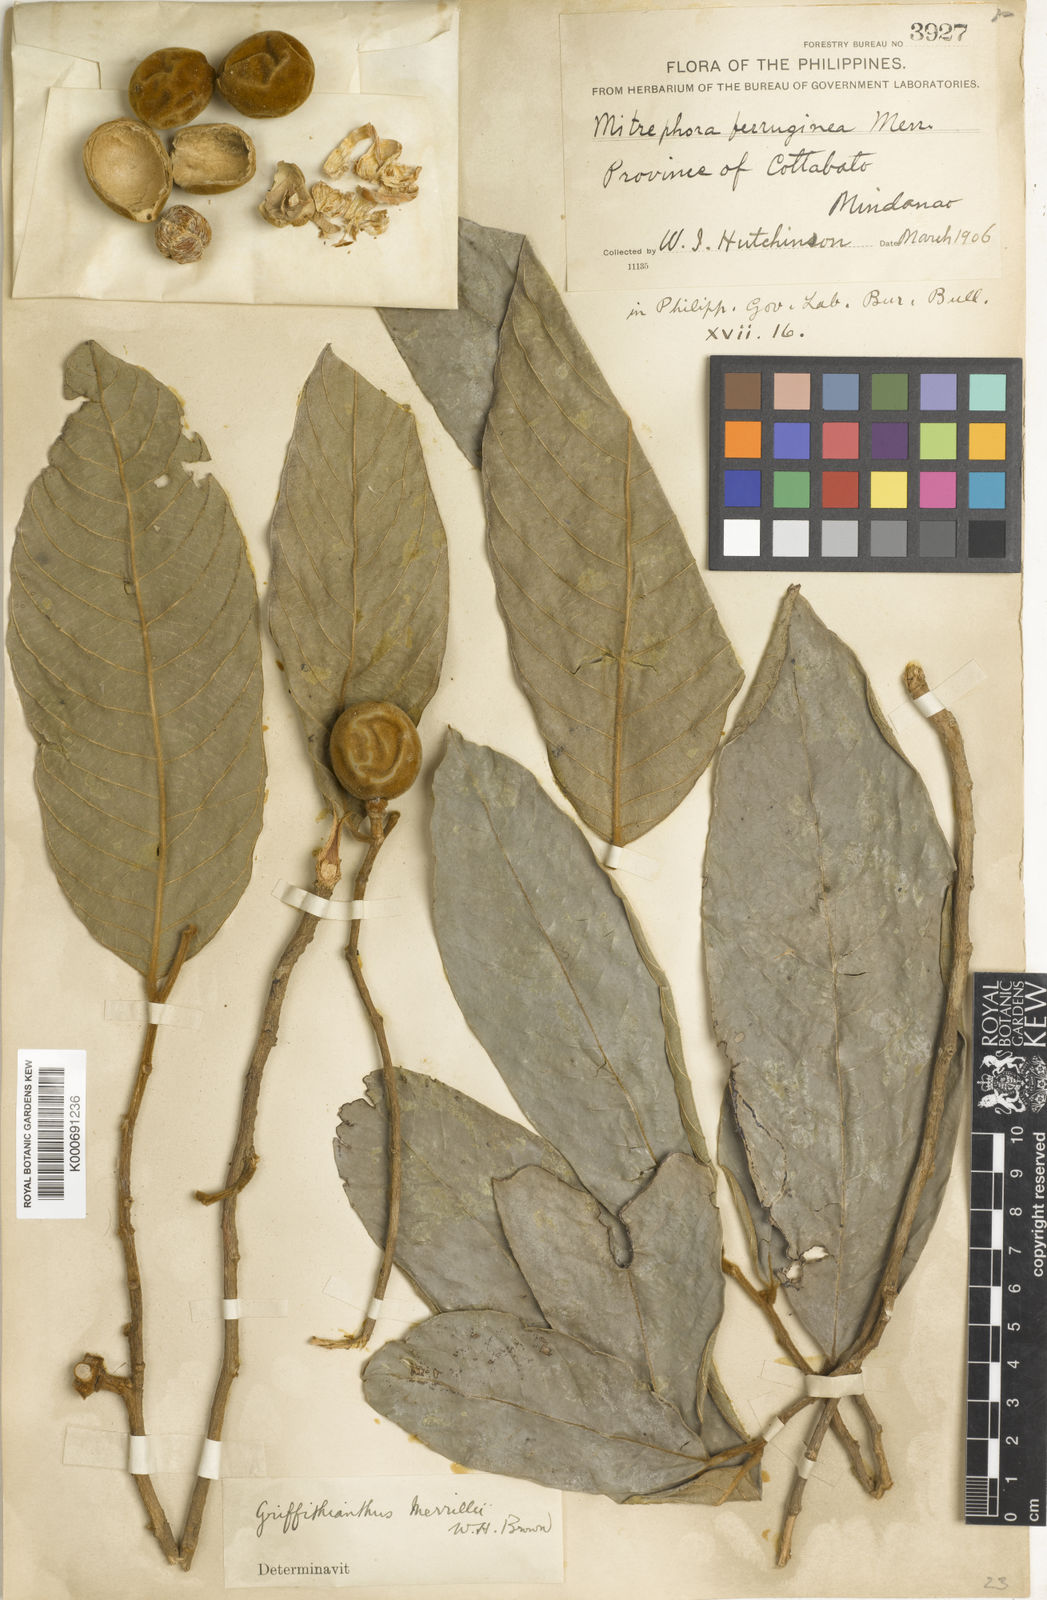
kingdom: Plantae
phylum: Tracheophyta
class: Magnoliopsida
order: Magnoliales
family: Annonaceae
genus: Neouvaria
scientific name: Neouvaria acuminatissima
